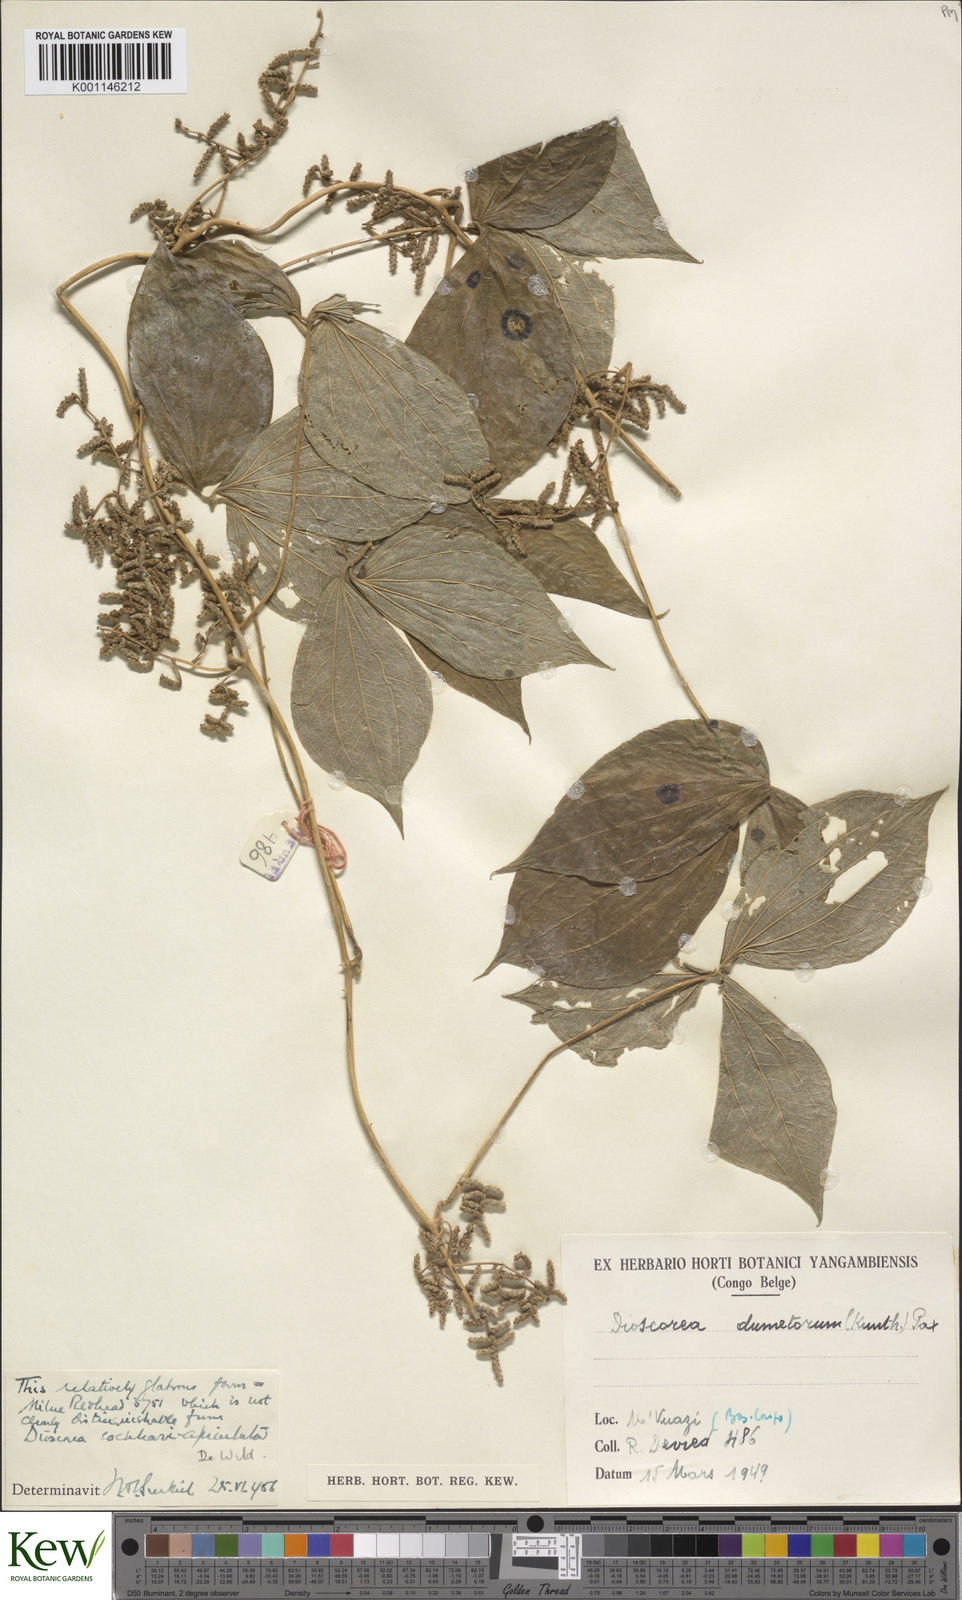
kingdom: Plantae
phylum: Tracheophyta
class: Liliopsida
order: Dioscoreales
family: Dioscoreaceae
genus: Dioscorea
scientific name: Dioscorea dumetorum
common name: African bitter yam
